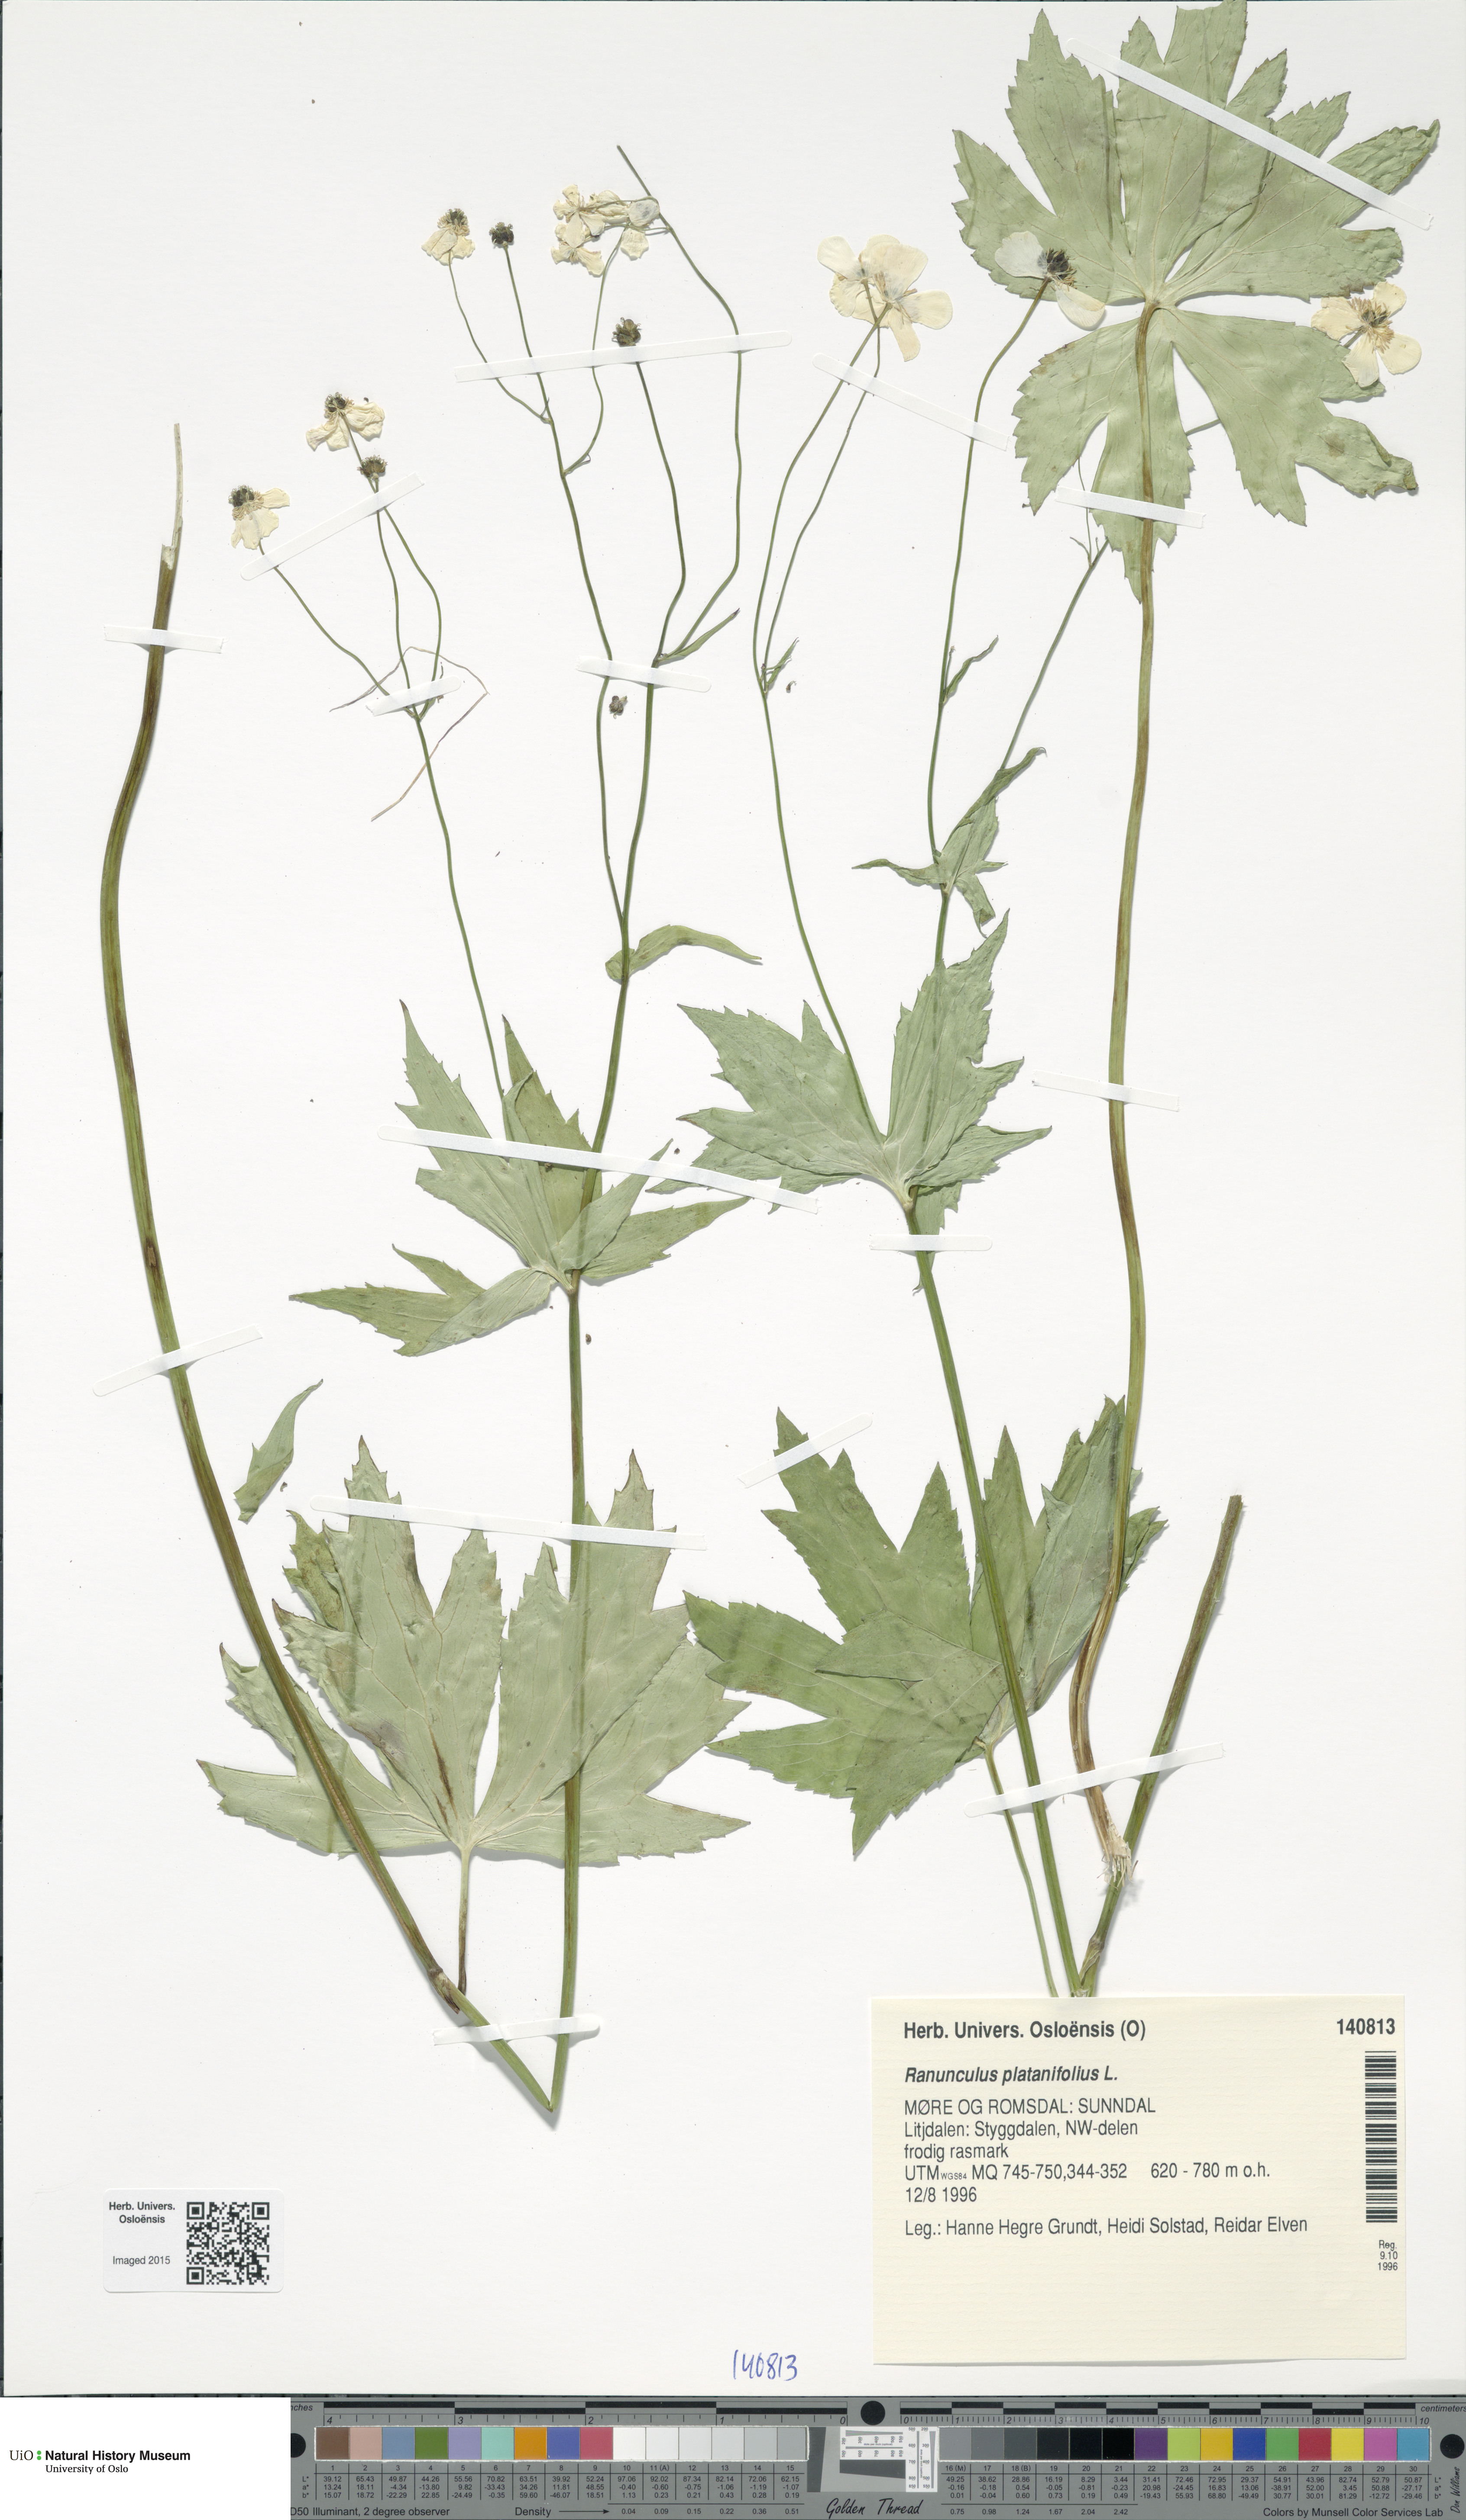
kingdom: Plantae
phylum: Tracheophyta
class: Magnoliopsida
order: Ranunculales
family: Ranunculaceae
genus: Ranunculus
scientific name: Ranunculus platanifolius
